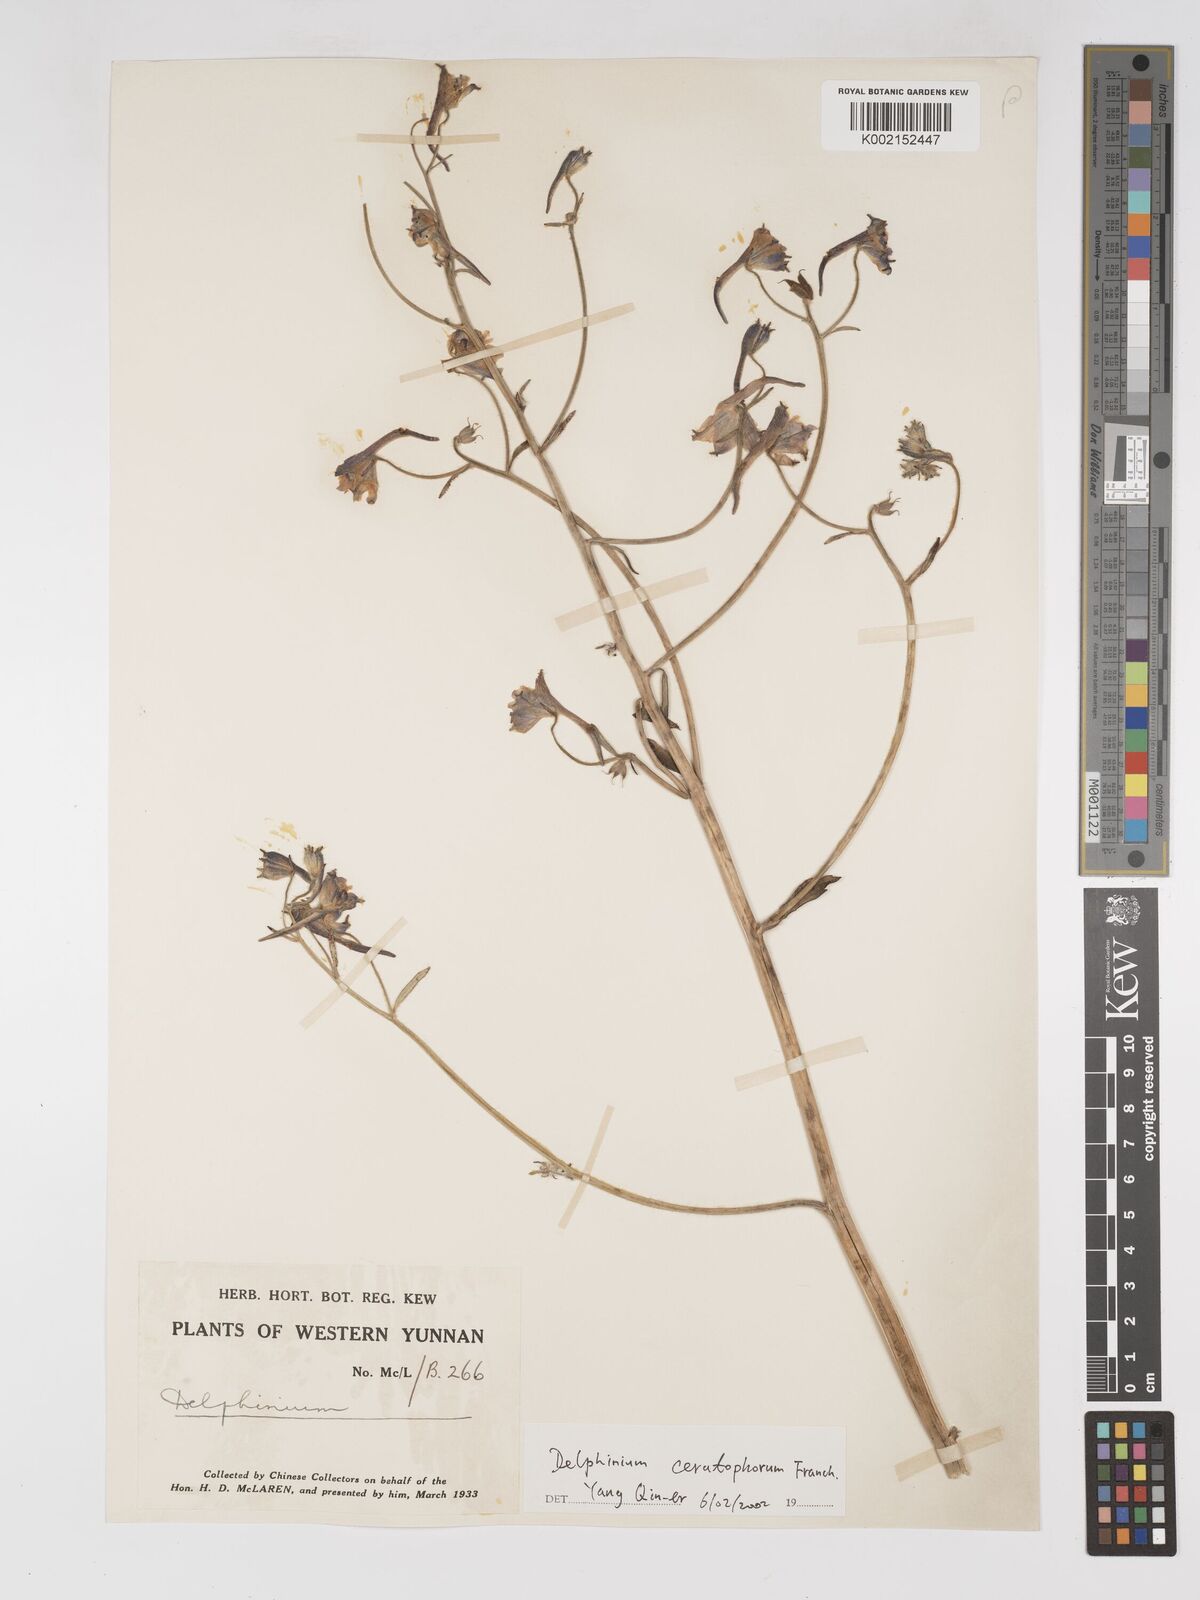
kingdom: Plantae
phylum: Tracheophyta
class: Magnoliopsida
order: Ranunculales
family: Ranunculaceae
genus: Delphinium
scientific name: Delphinium ceratophorum
